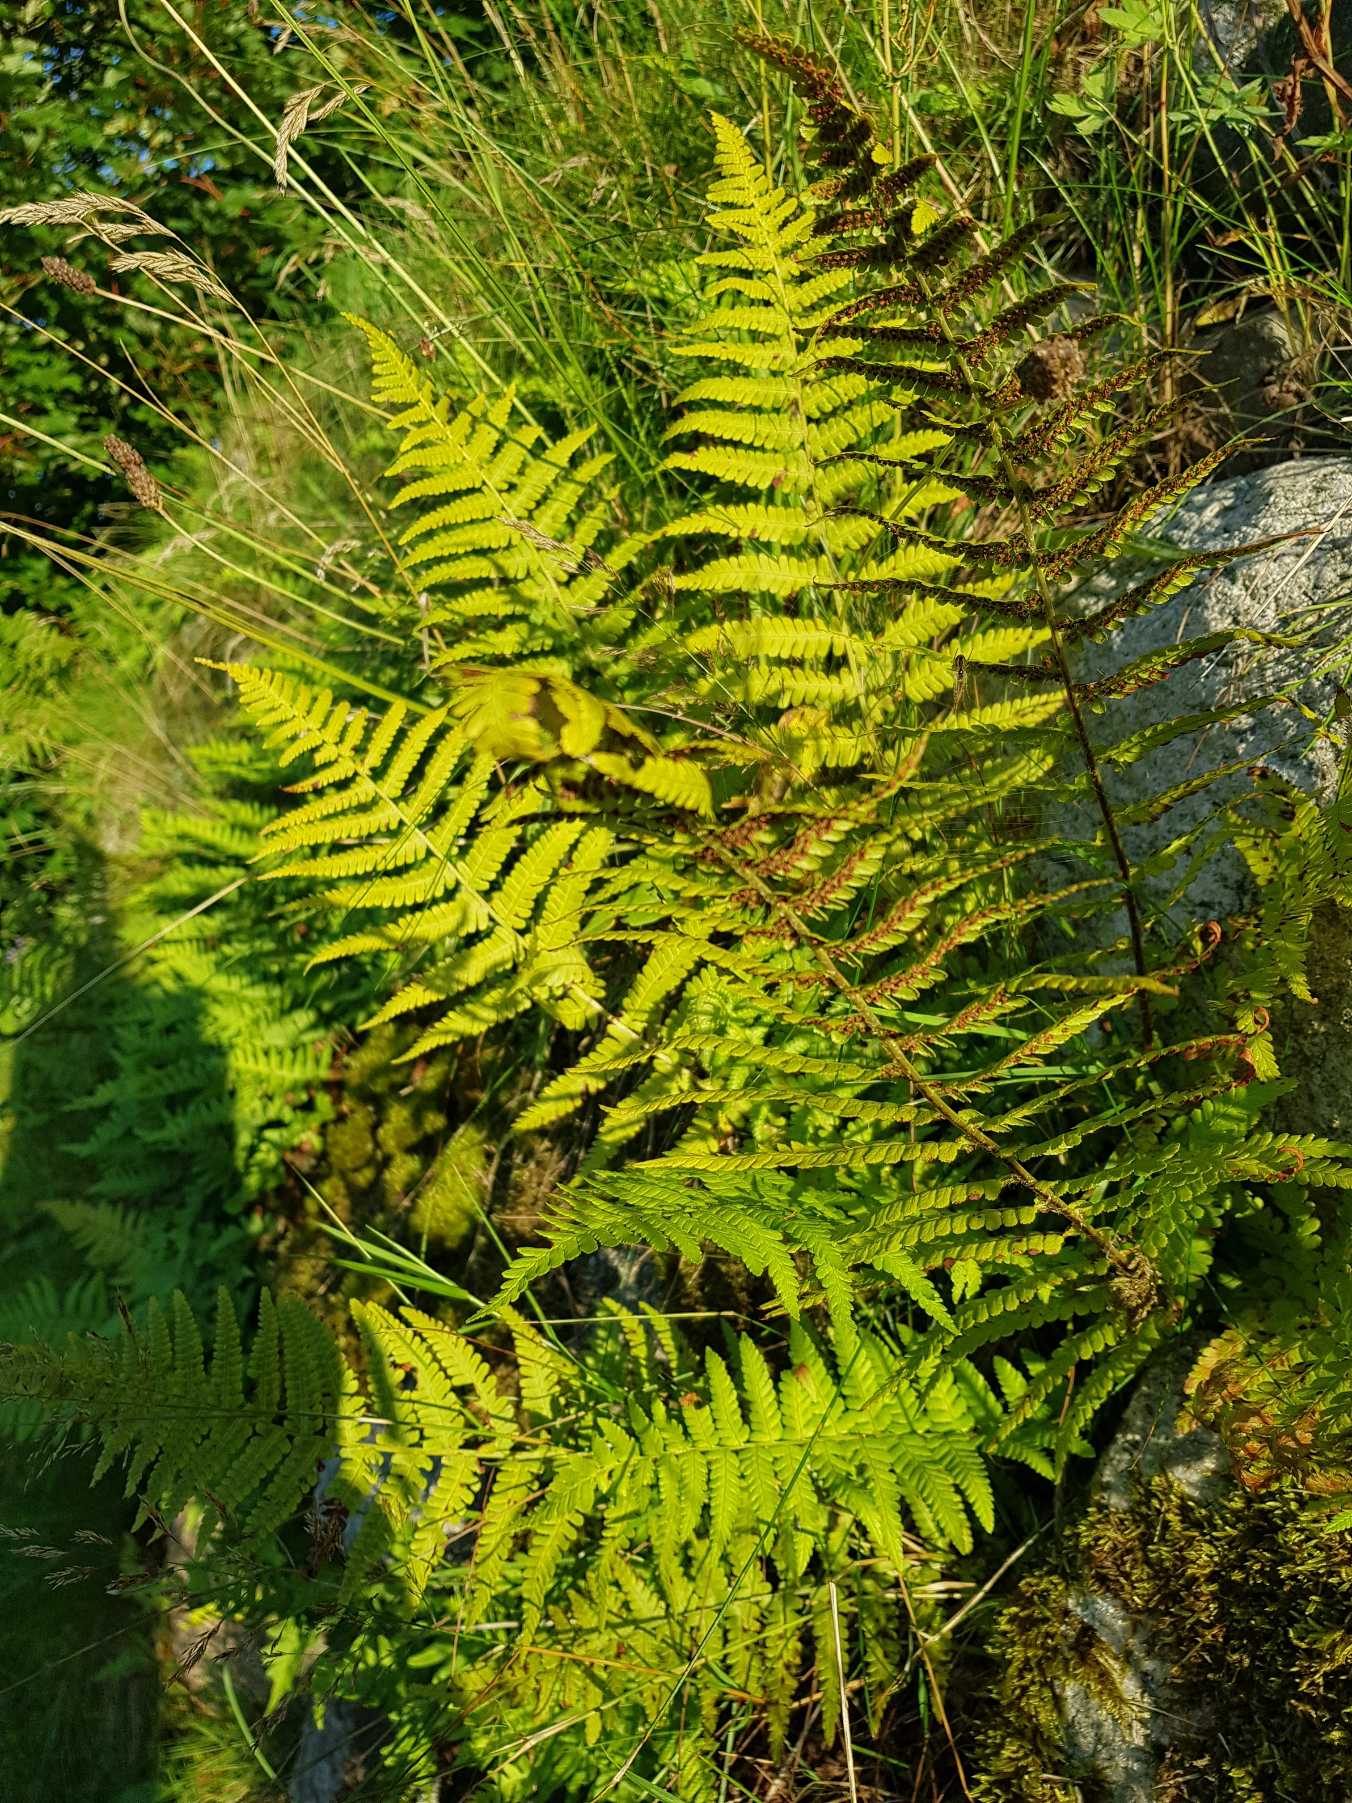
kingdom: Plantae
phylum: Tracheophyta
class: Polypodiopsida
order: Polypodiales
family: Dryopteridaceae
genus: Dryopteris
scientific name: Dryopteris filix-mas
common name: Almindelig mangeløv
